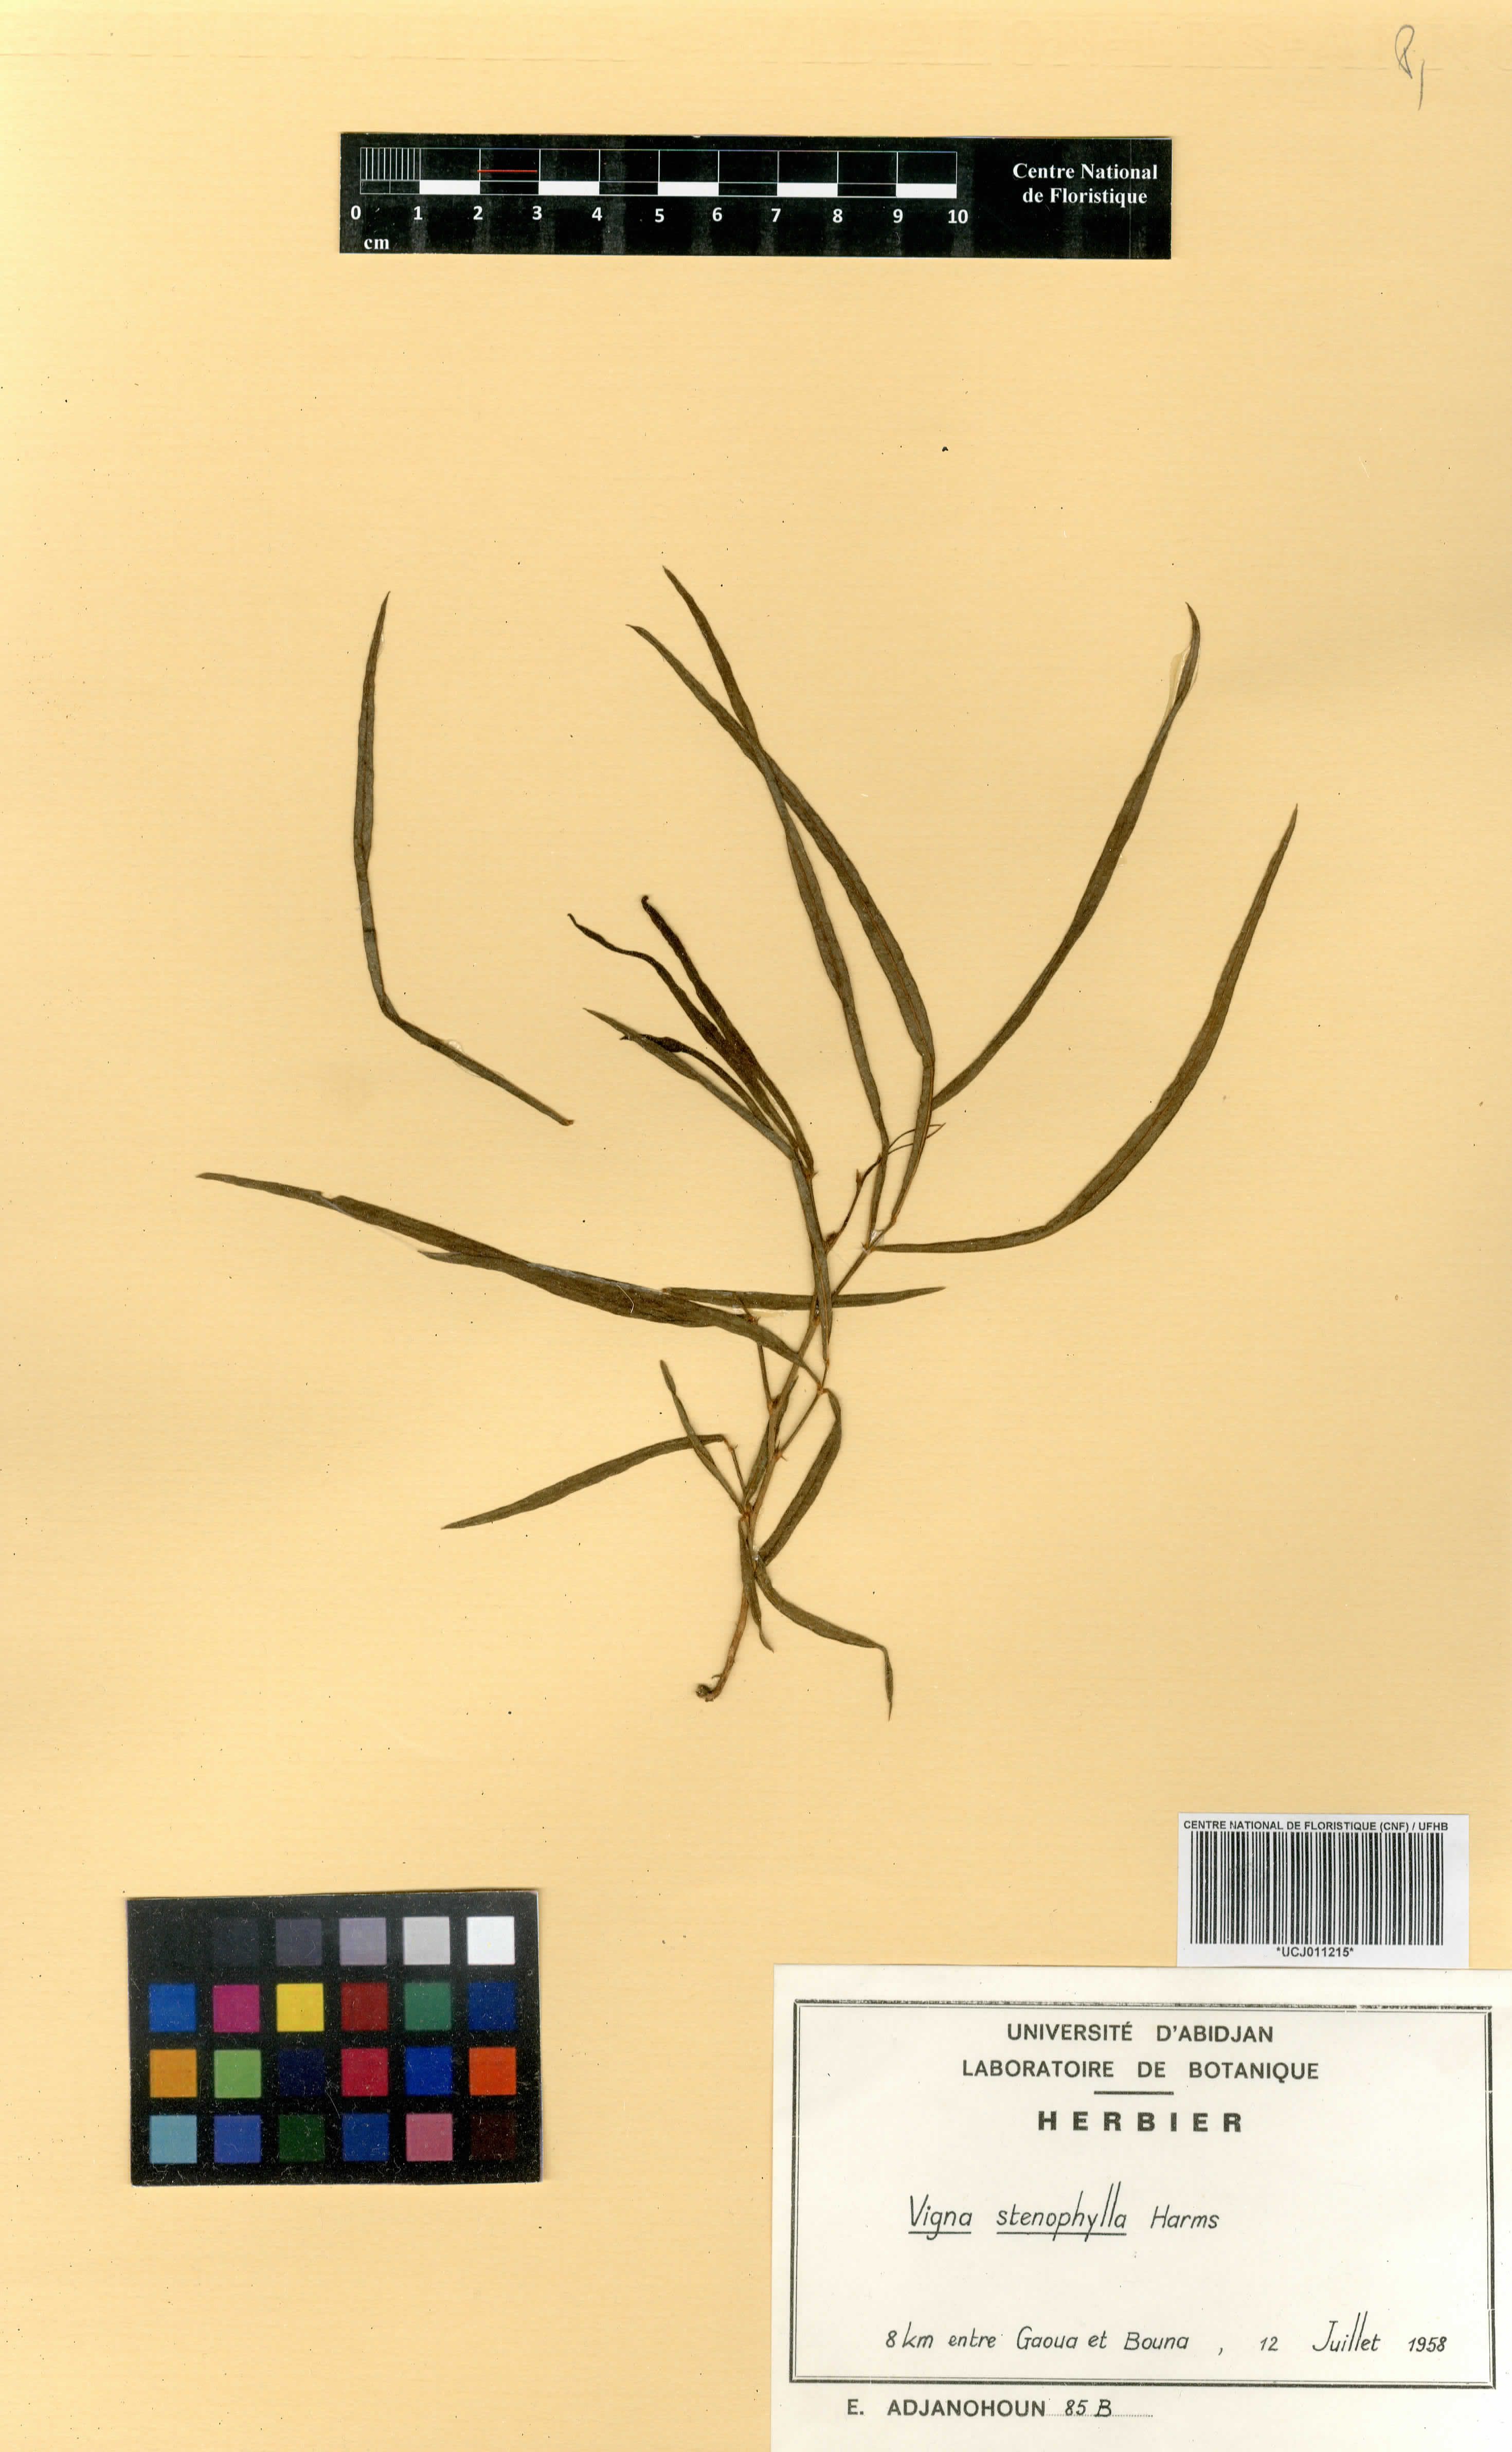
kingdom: Plantae
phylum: Tracheophyta
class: Magnoliopsida
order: Fabales
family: Fabaceae
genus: Vigna
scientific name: Vigna stenophylla
